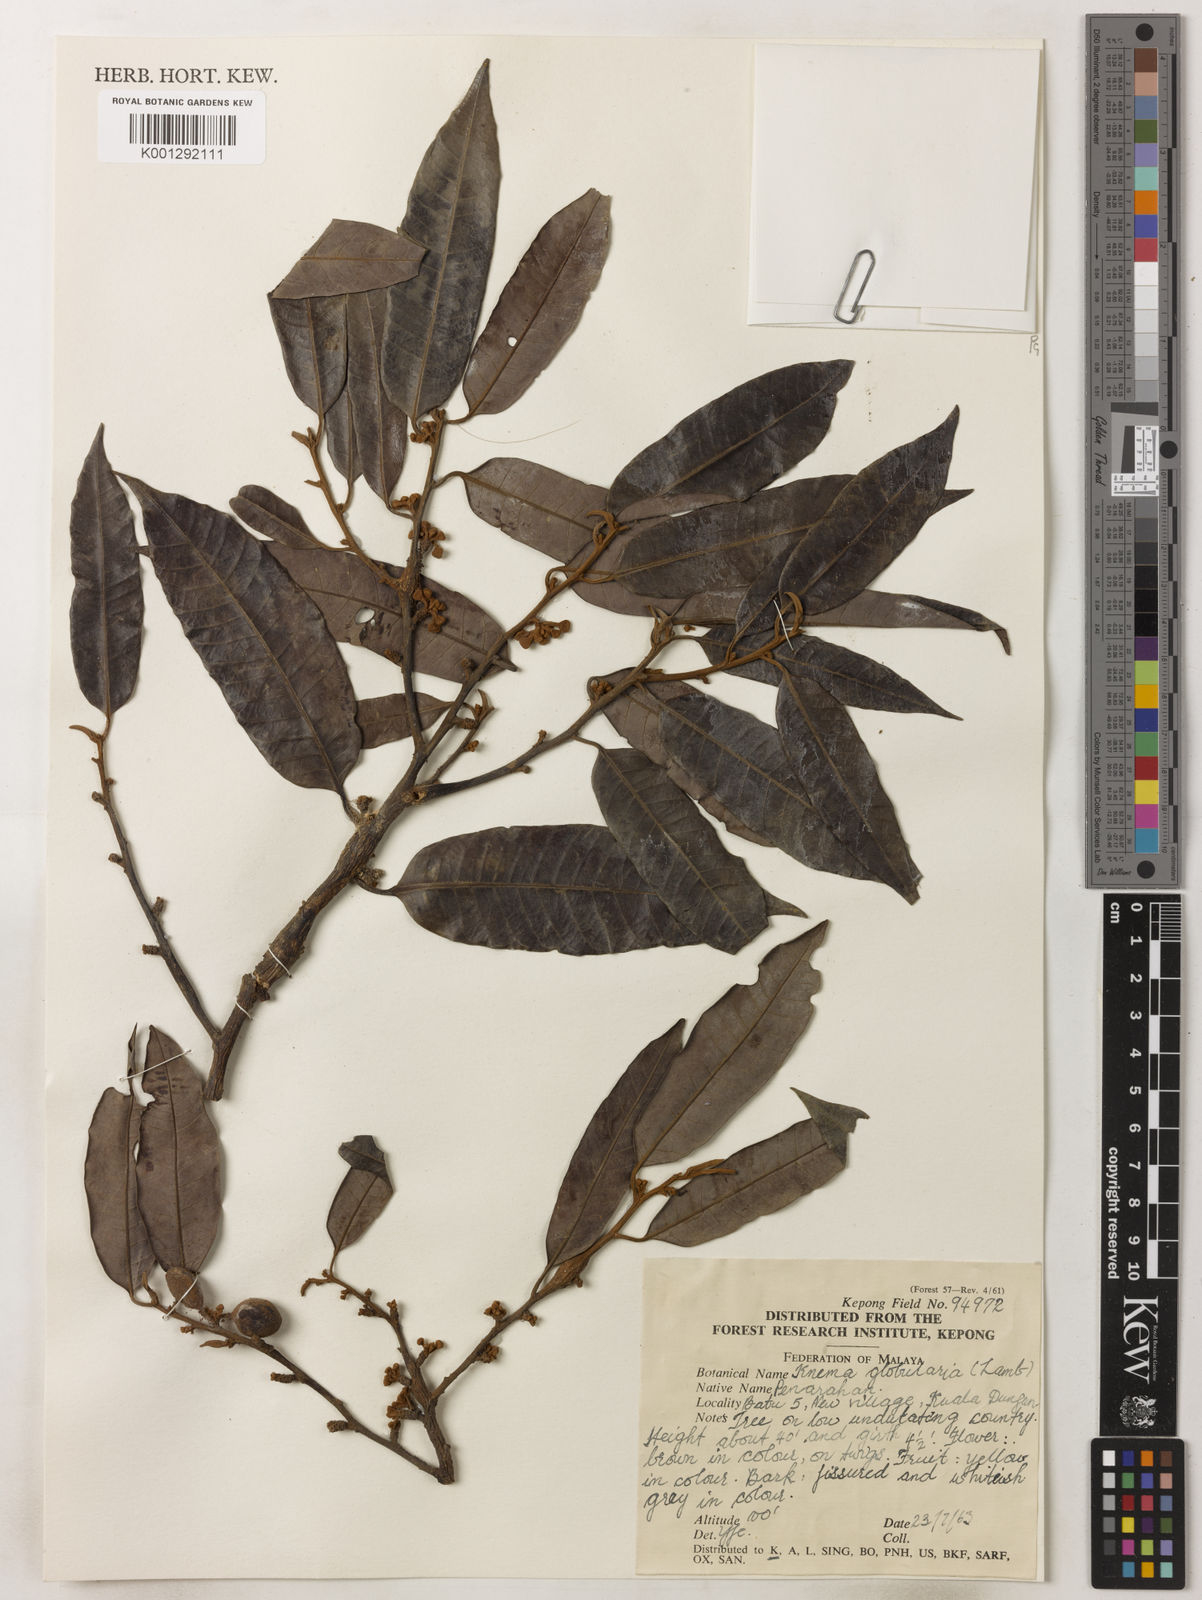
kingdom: Plantae
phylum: Tracheophyta
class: Magnoliopsida
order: Magnoliales
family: Myristicaceae
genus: Knema
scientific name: Knema globularia
